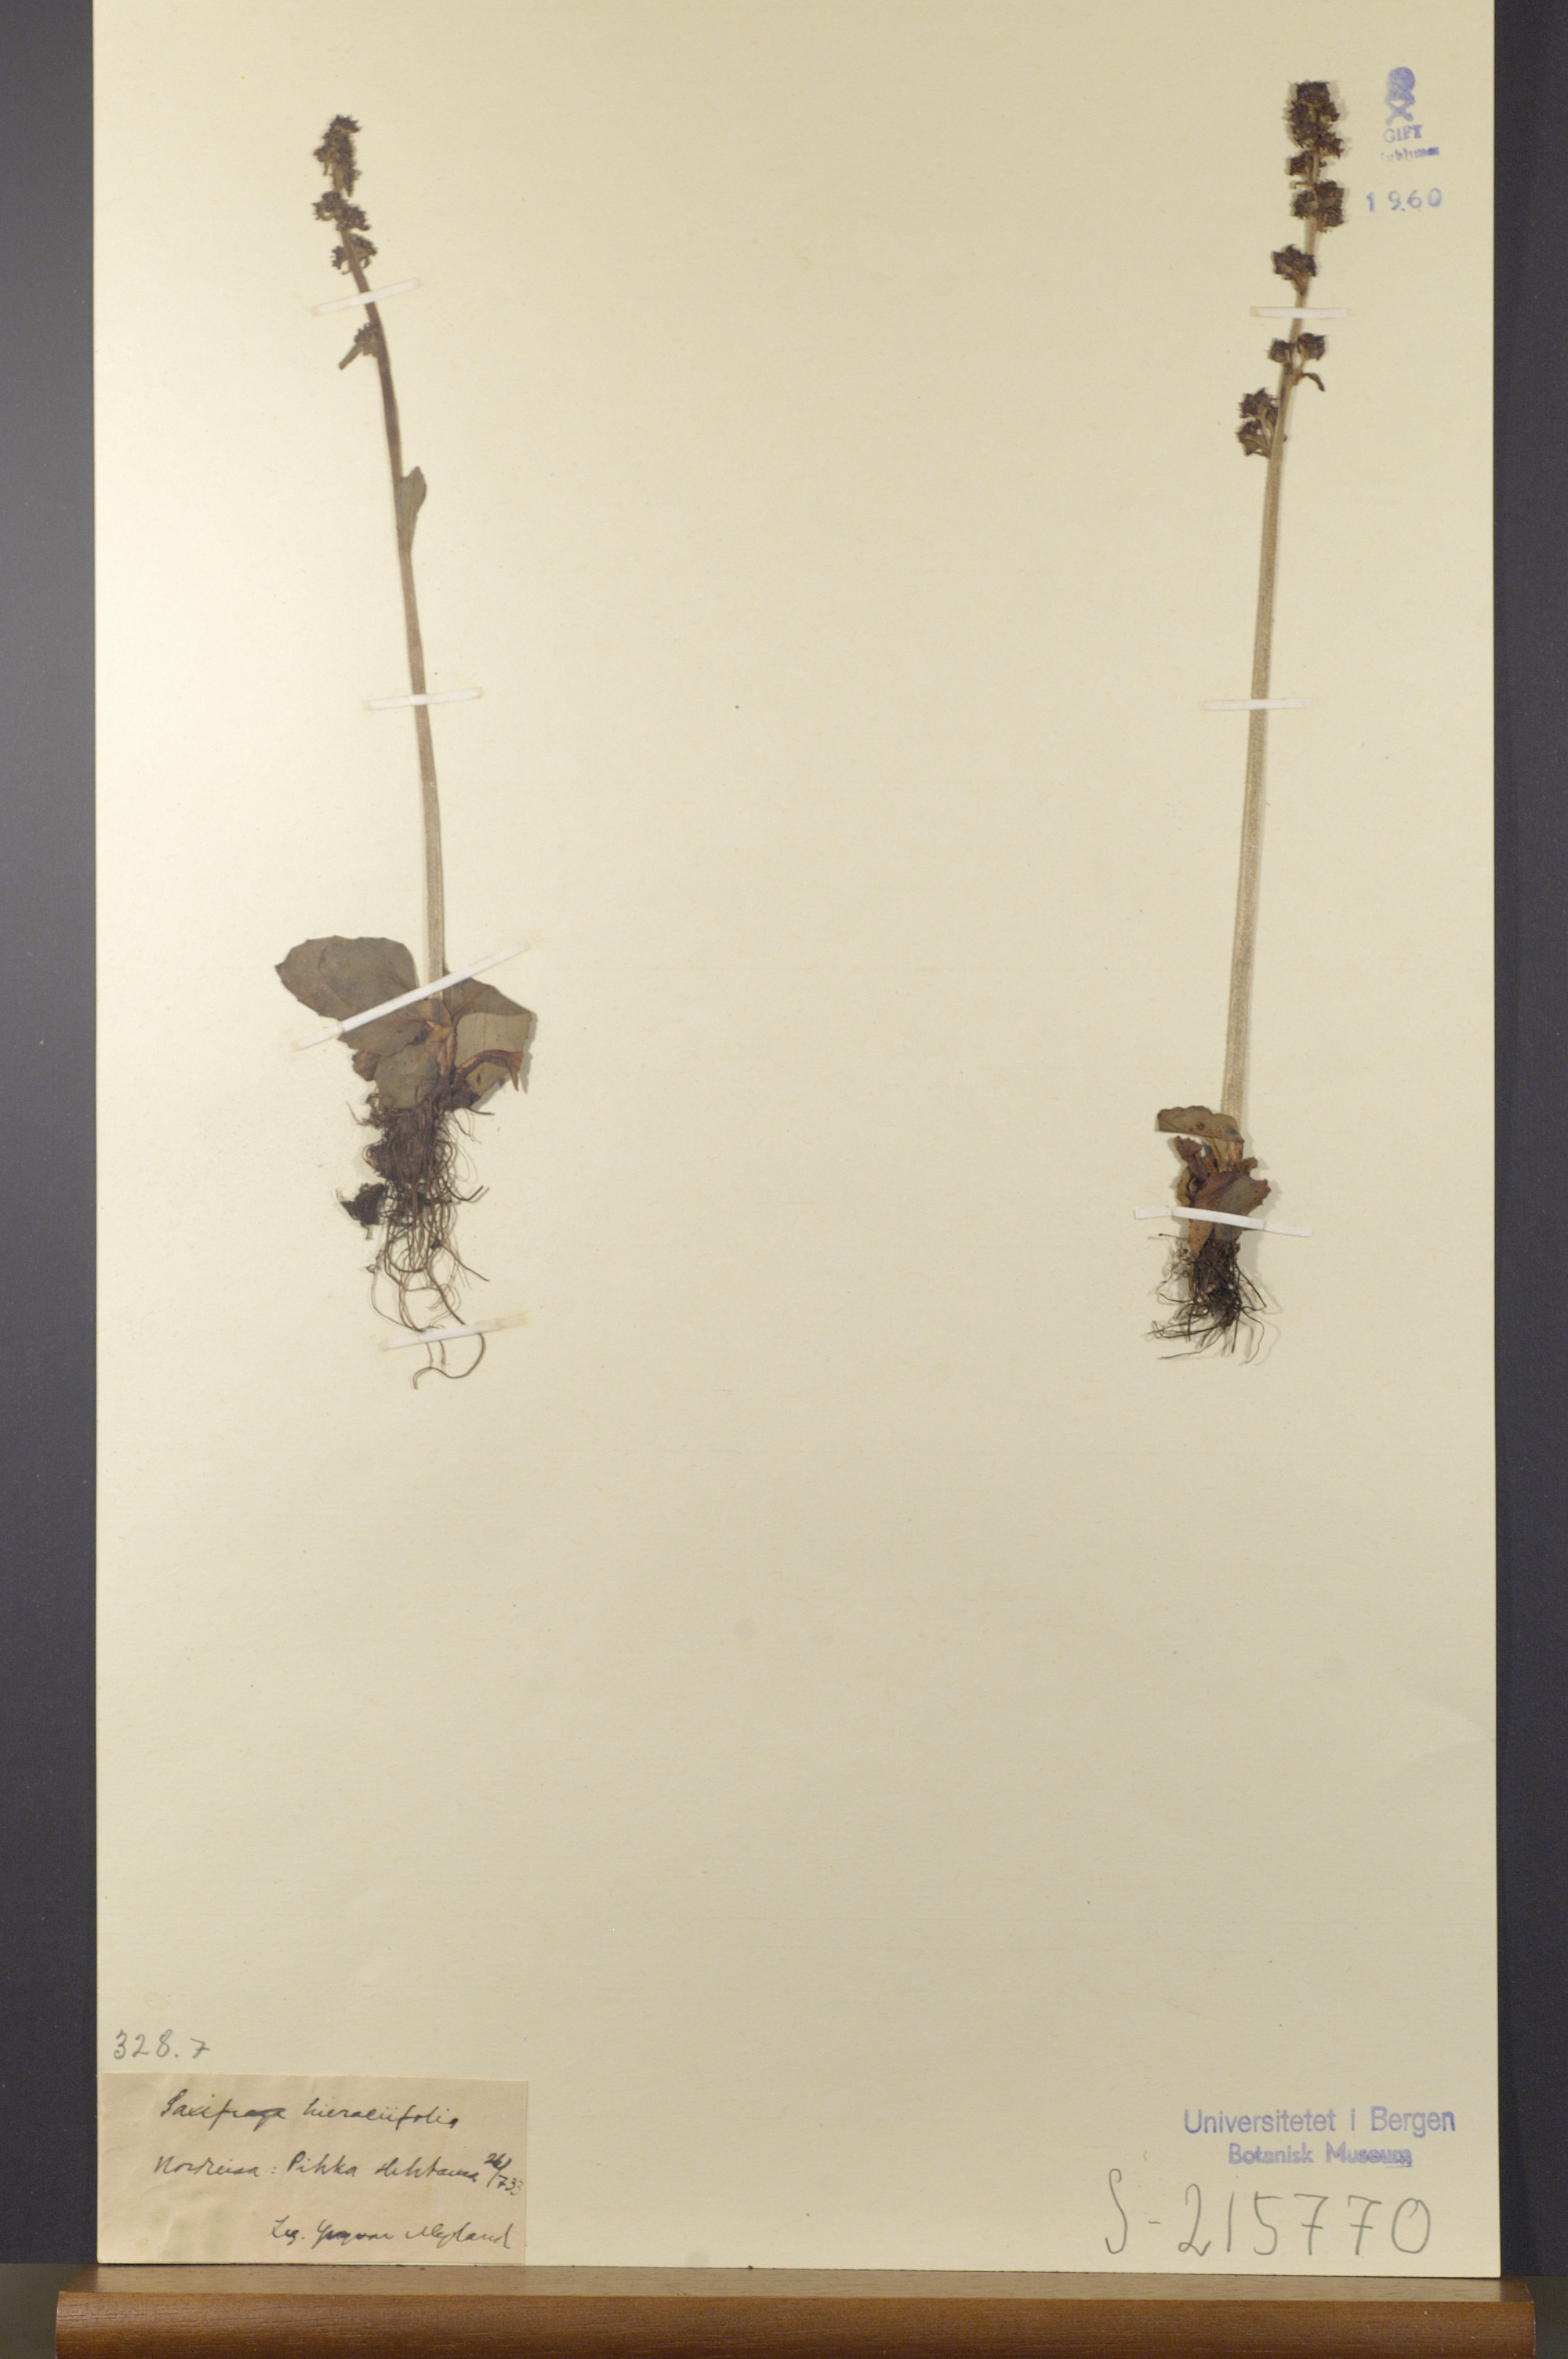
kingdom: Plantae
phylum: Tracheophyta
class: Magnoliopsida
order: Saxifragales
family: Saxifragaceae
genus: Micranthes
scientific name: Micranthes hieraciifolia
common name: Hawkweed-leaved saxifrage
